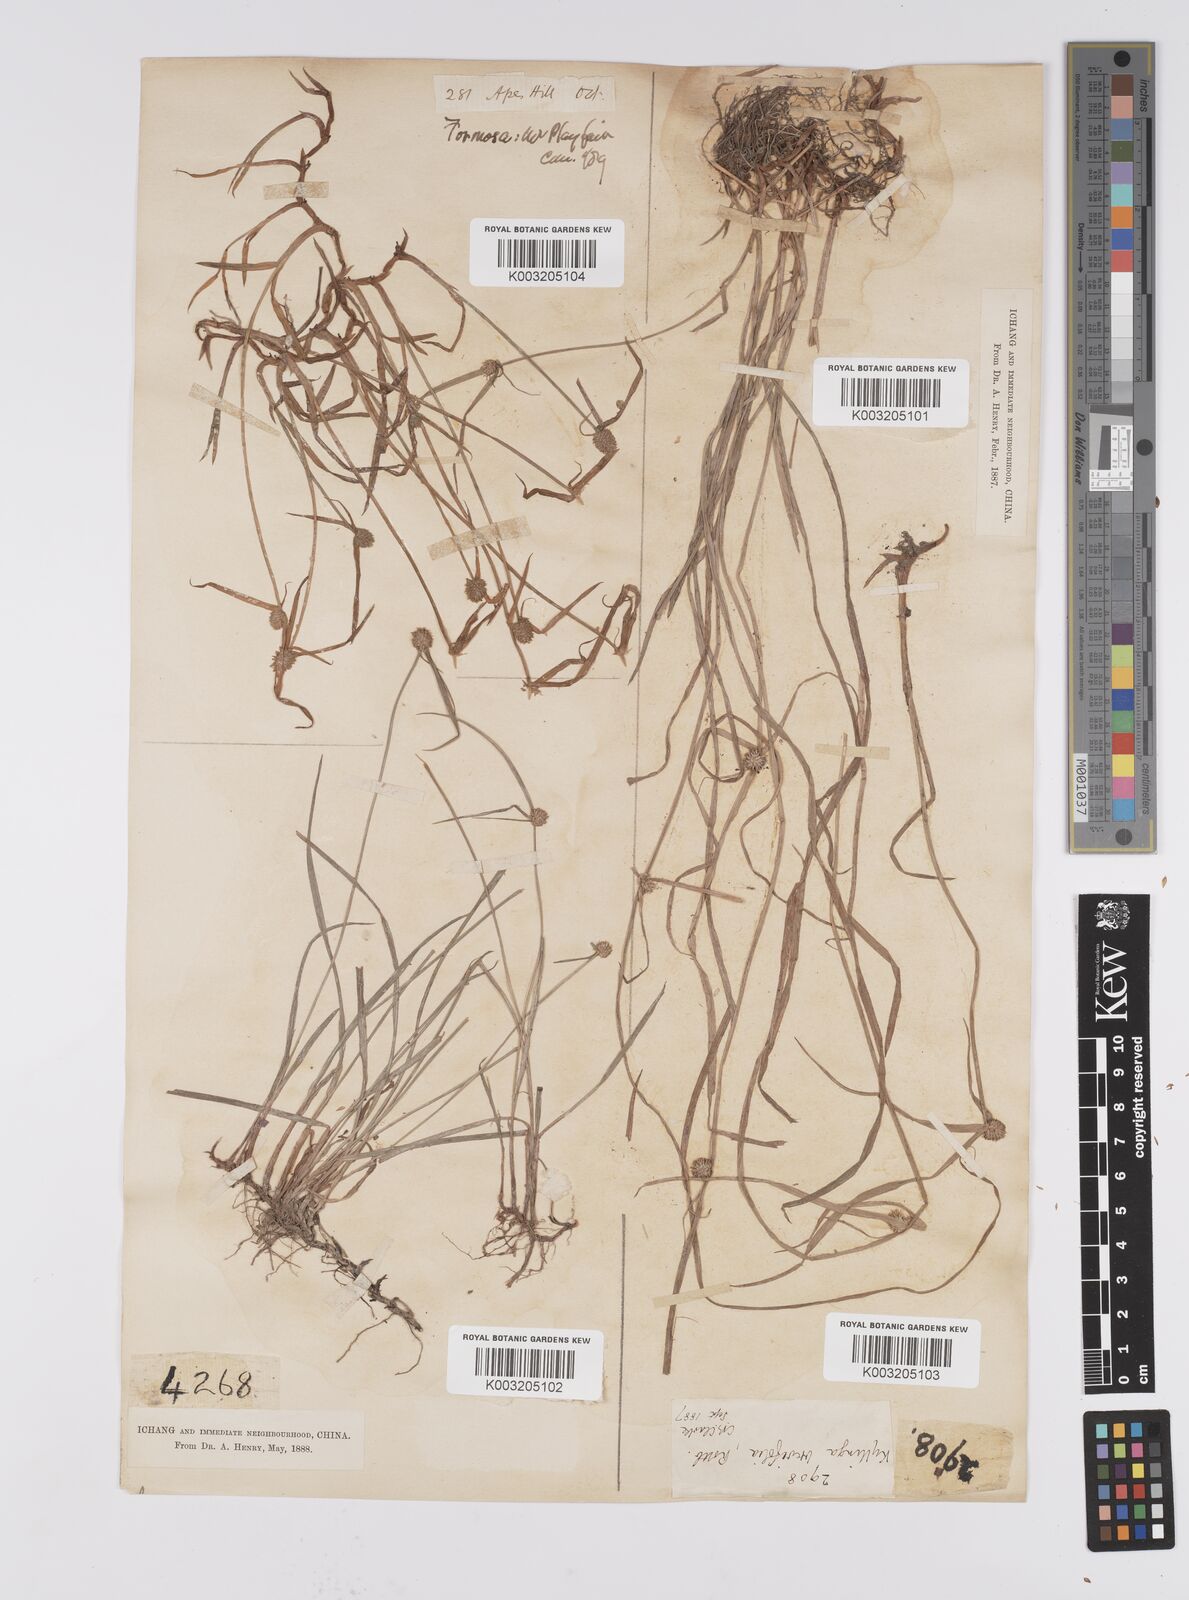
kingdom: Plantae
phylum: Tracheophyta
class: Liliopsida
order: Poales
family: Cyperaceae
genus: Cyperus
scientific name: Cyperus brevifolius
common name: Globe kyllinga
